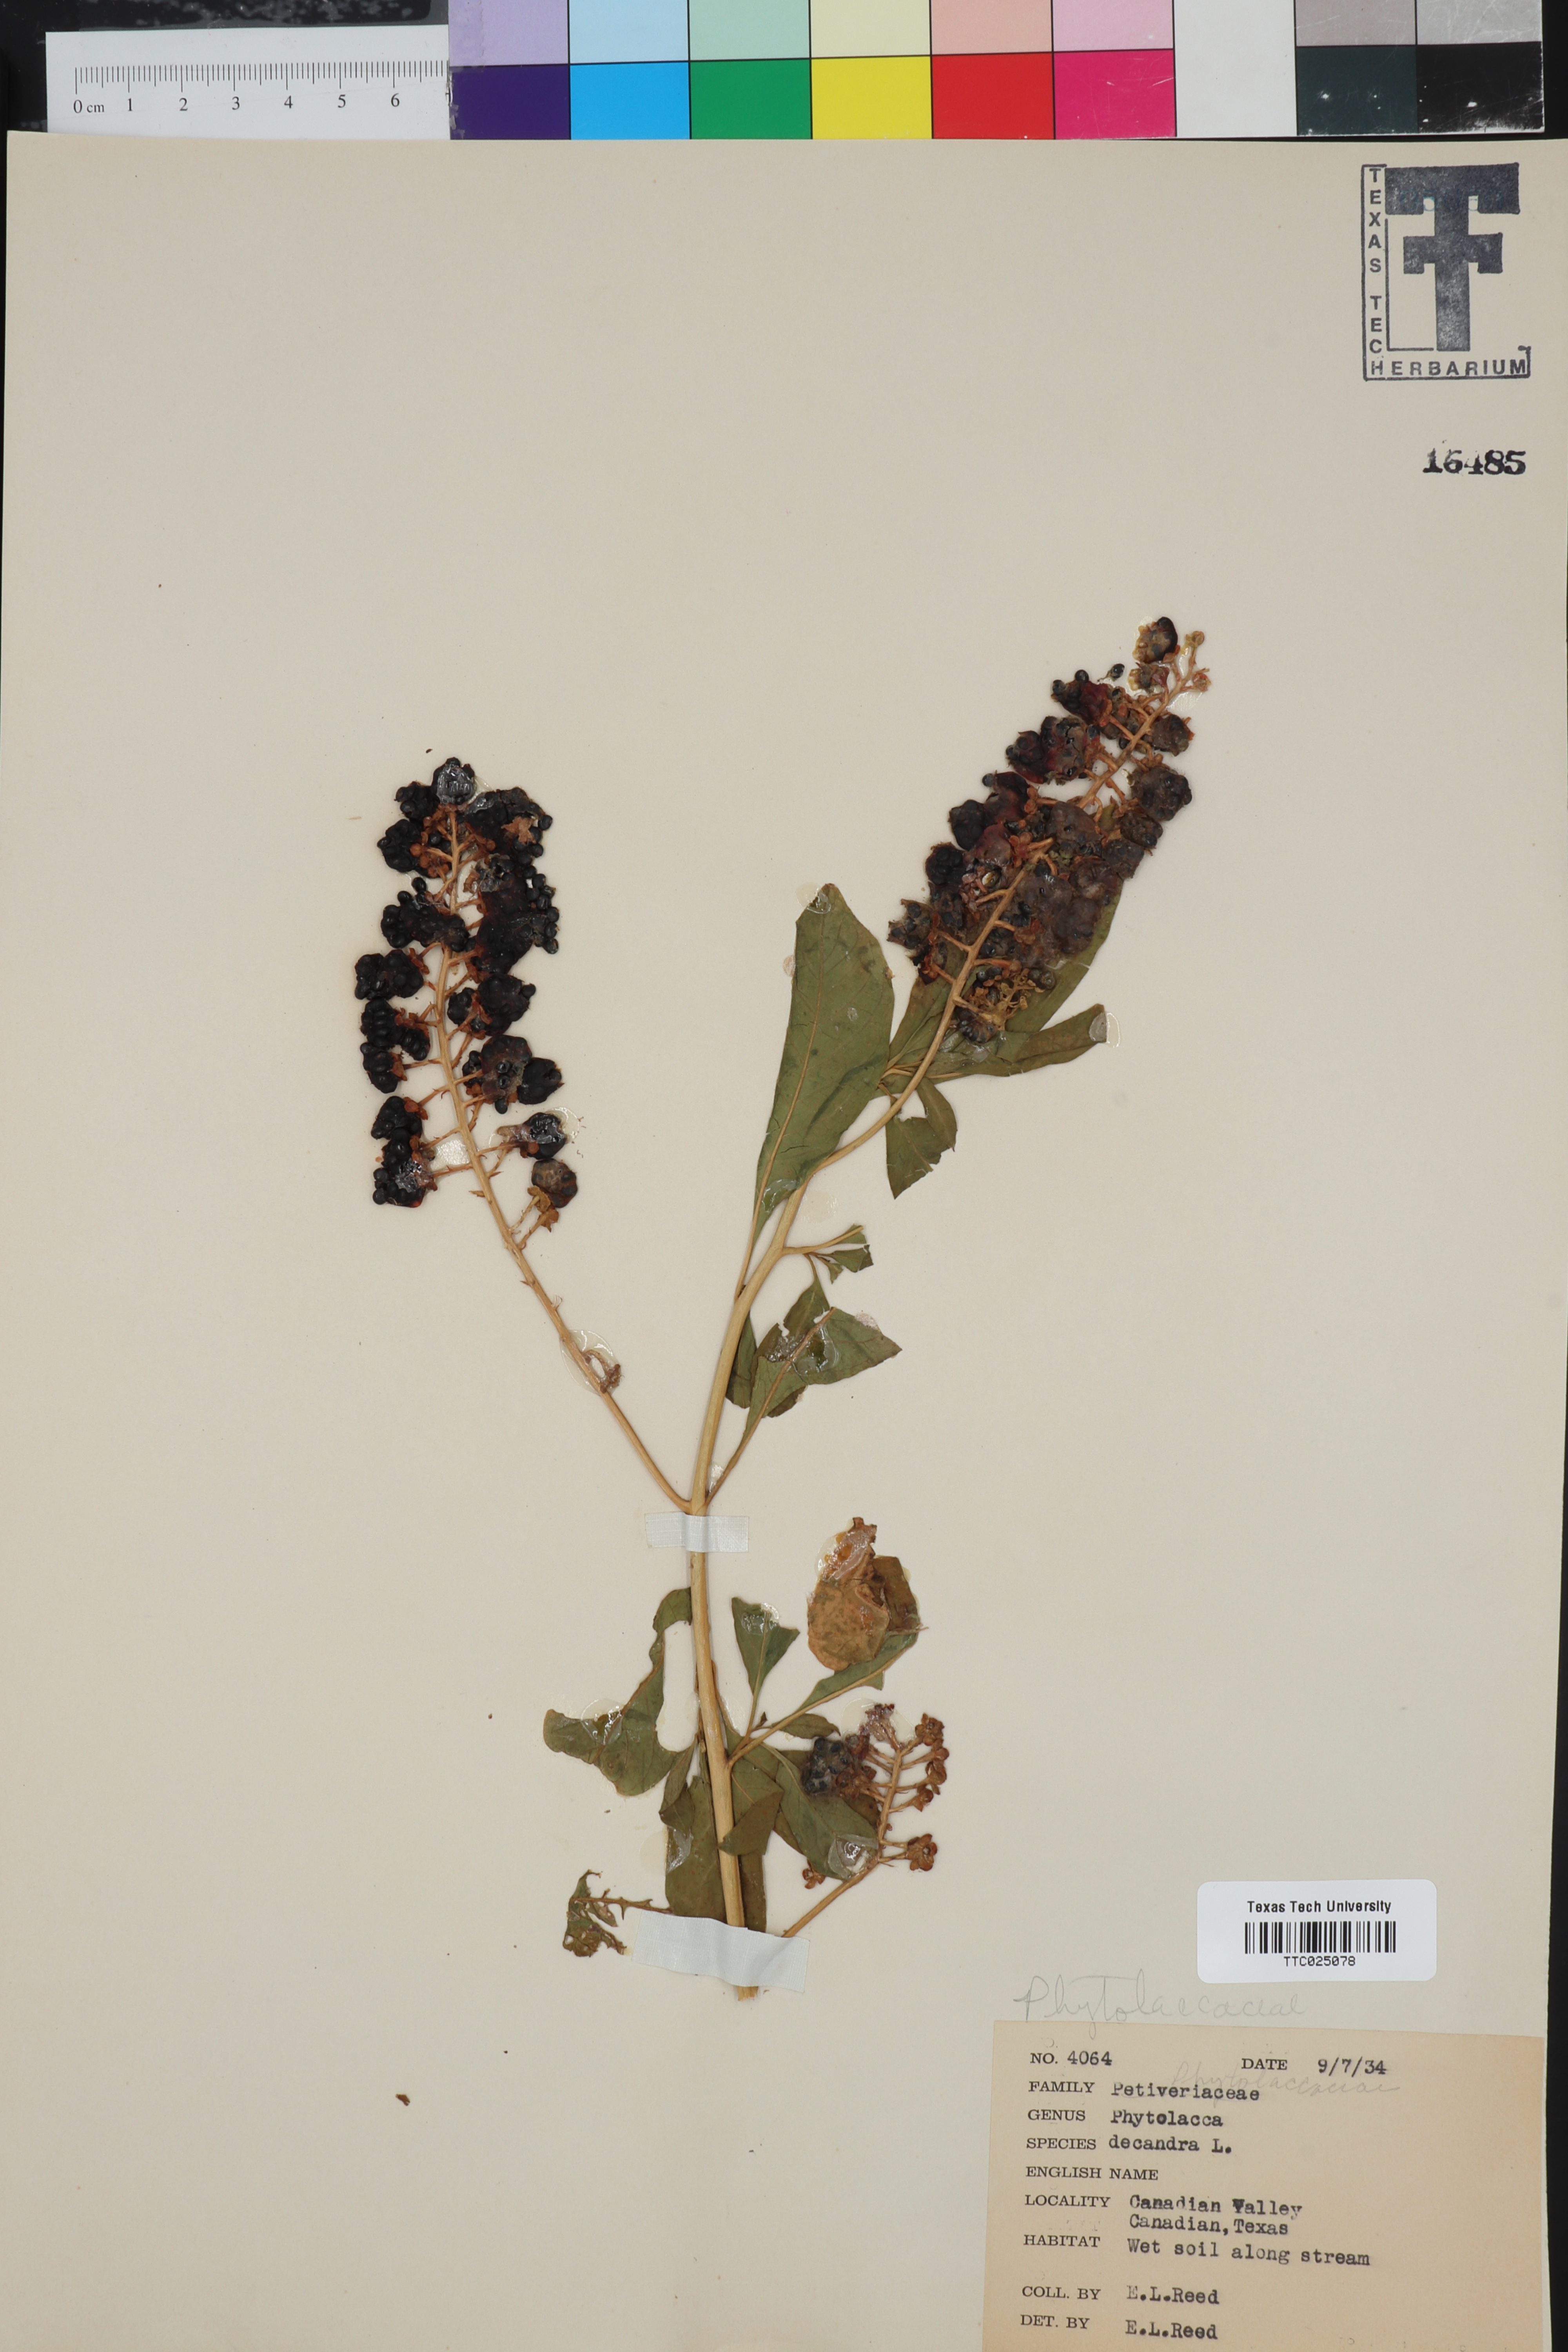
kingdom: Plantae
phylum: Tracheophyta
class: Magnoliopsida
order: Caryophyllales
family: Phytolaccaceae
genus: Phytolacca
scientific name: Phytolacca americana
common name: American pokeweed
